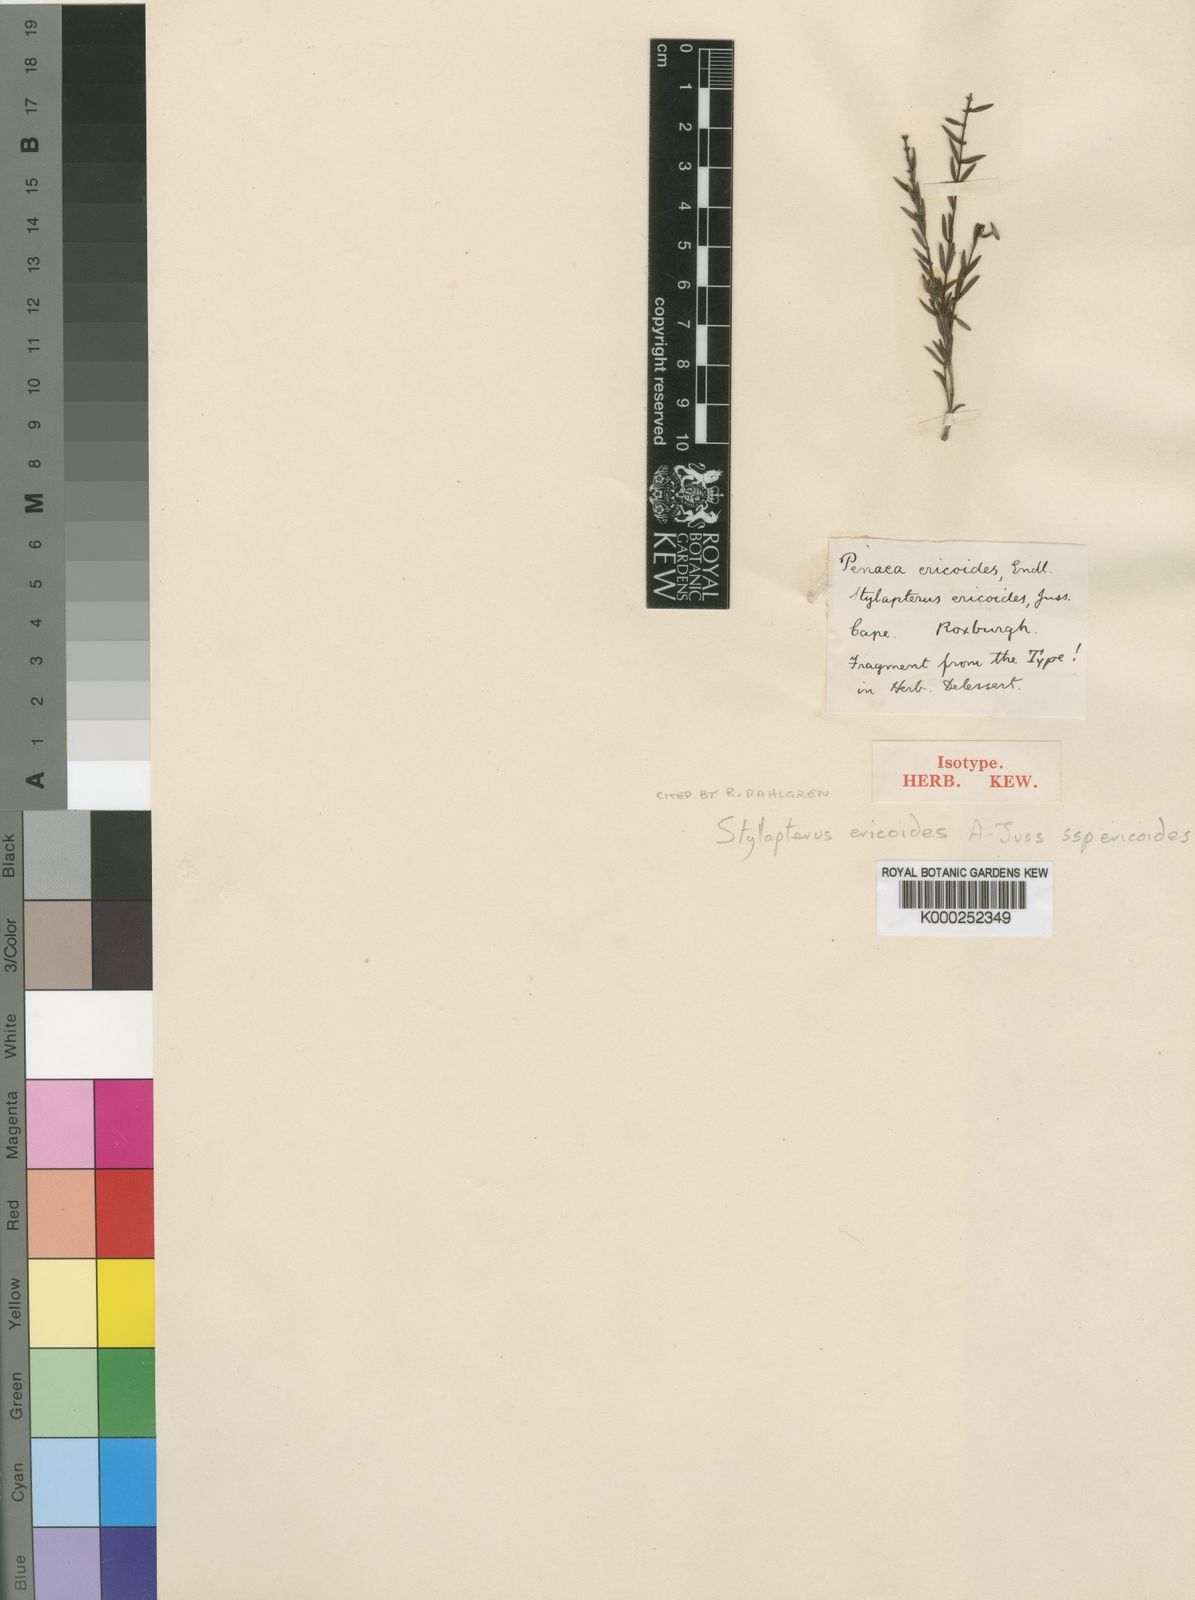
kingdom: Plantae
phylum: Tracheophyta
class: Magnoliopsida
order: Myrtales
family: Penaeaceae
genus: Stylapterus
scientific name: Stylapterus ericoides
